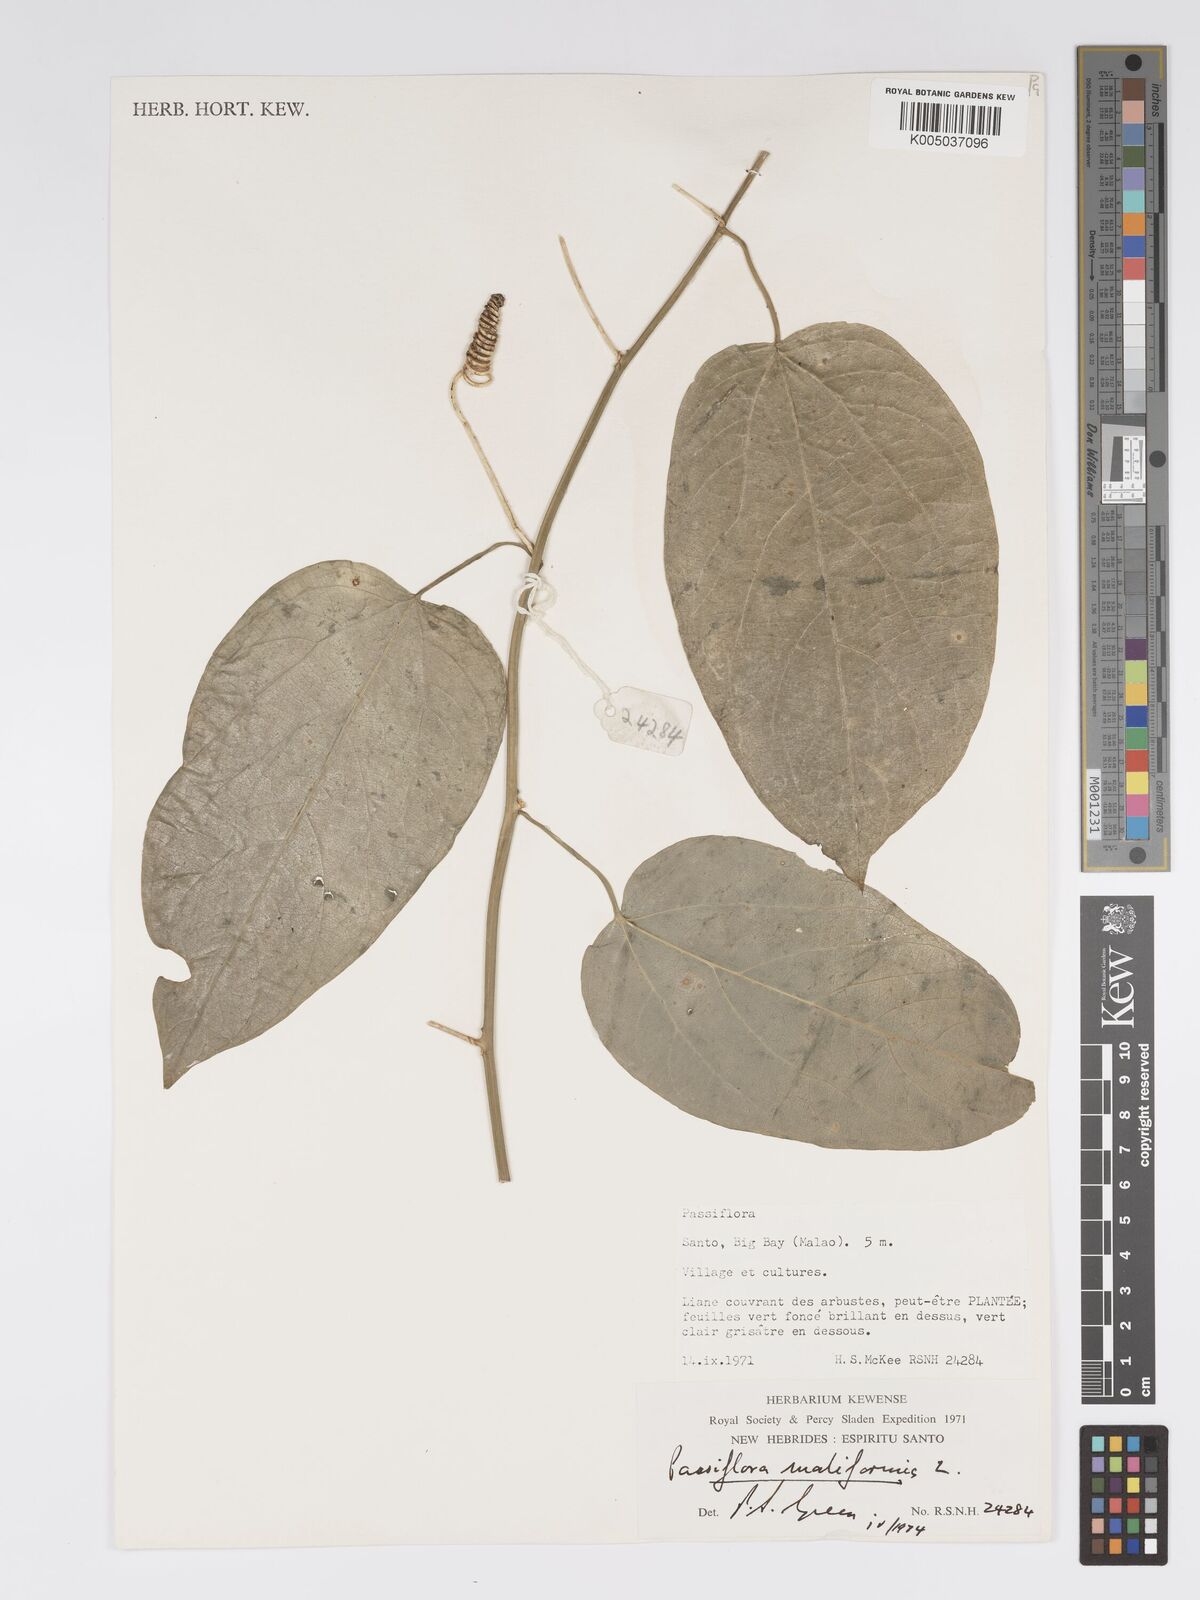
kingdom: Plantae
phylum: Tracheophyta
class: Magnoliopsida
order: Malpighiales
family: Passifloraceae
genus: Passiflora
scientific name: Passiflora
